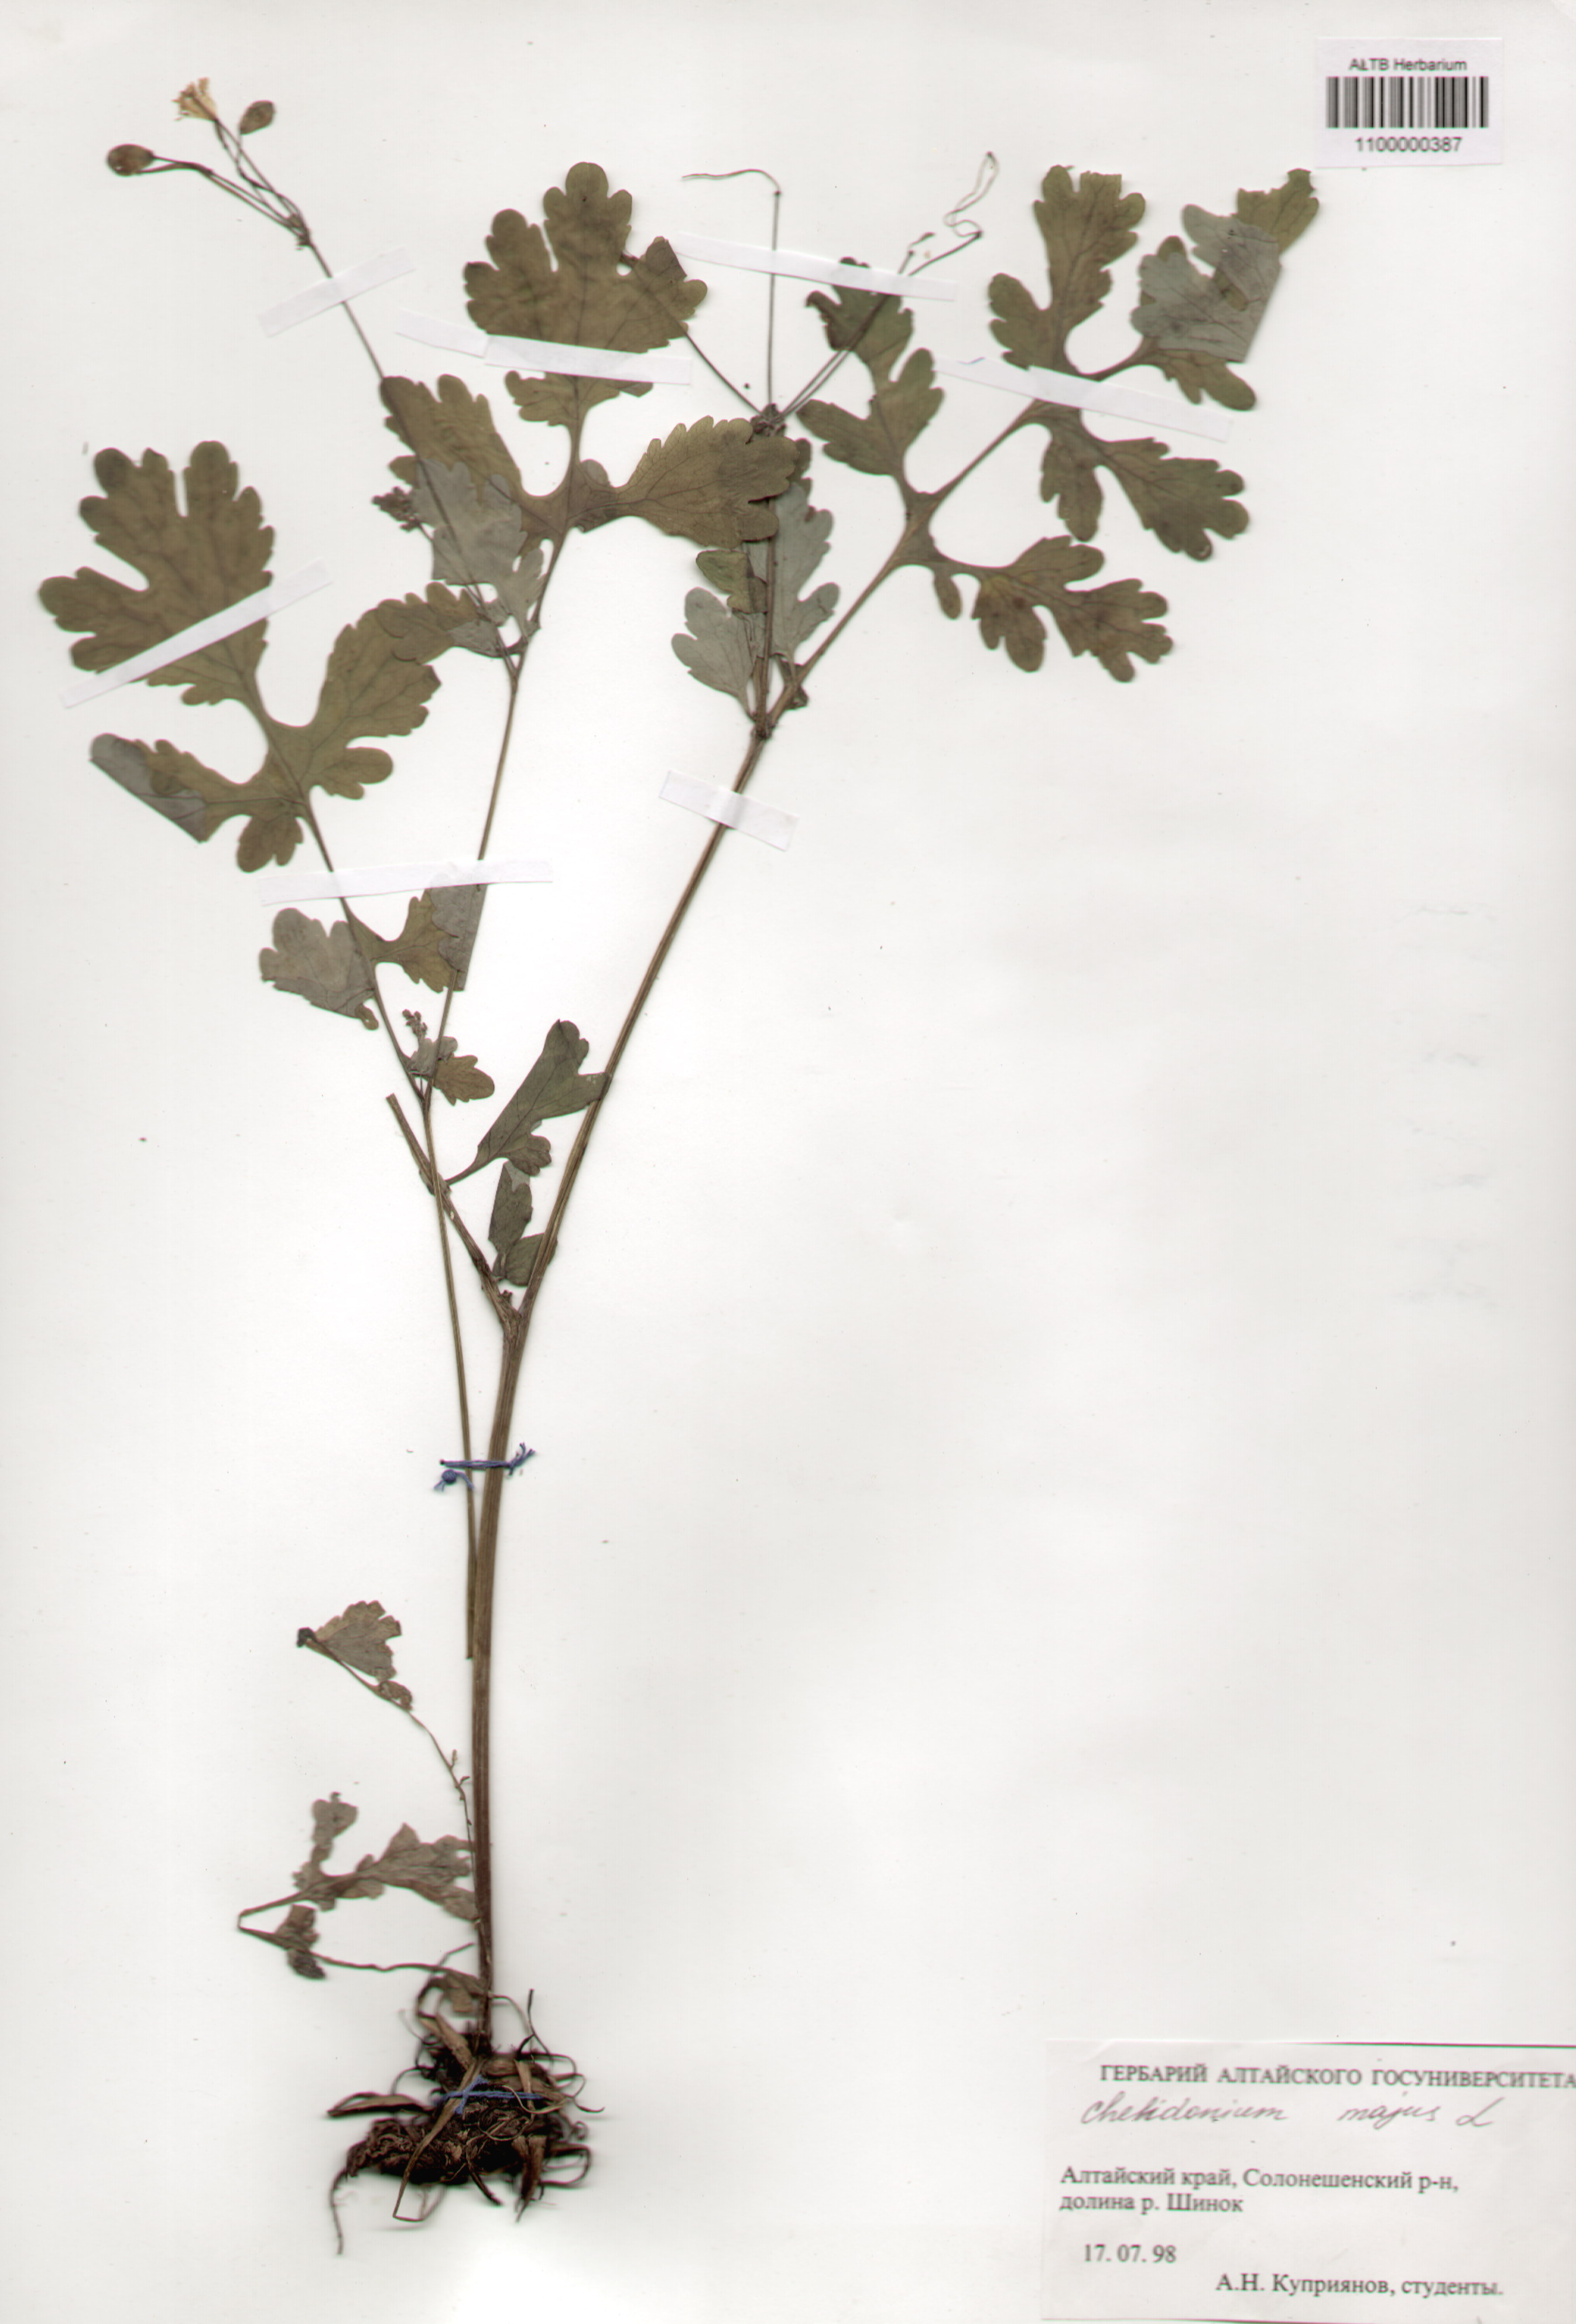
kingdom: Plantae
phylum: Tracheophyta
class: Magnoliopsida
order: Ranunculales
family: Papaveraceae
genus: Chelidonium
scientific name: Chelidonium majus
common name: Greater celandine
